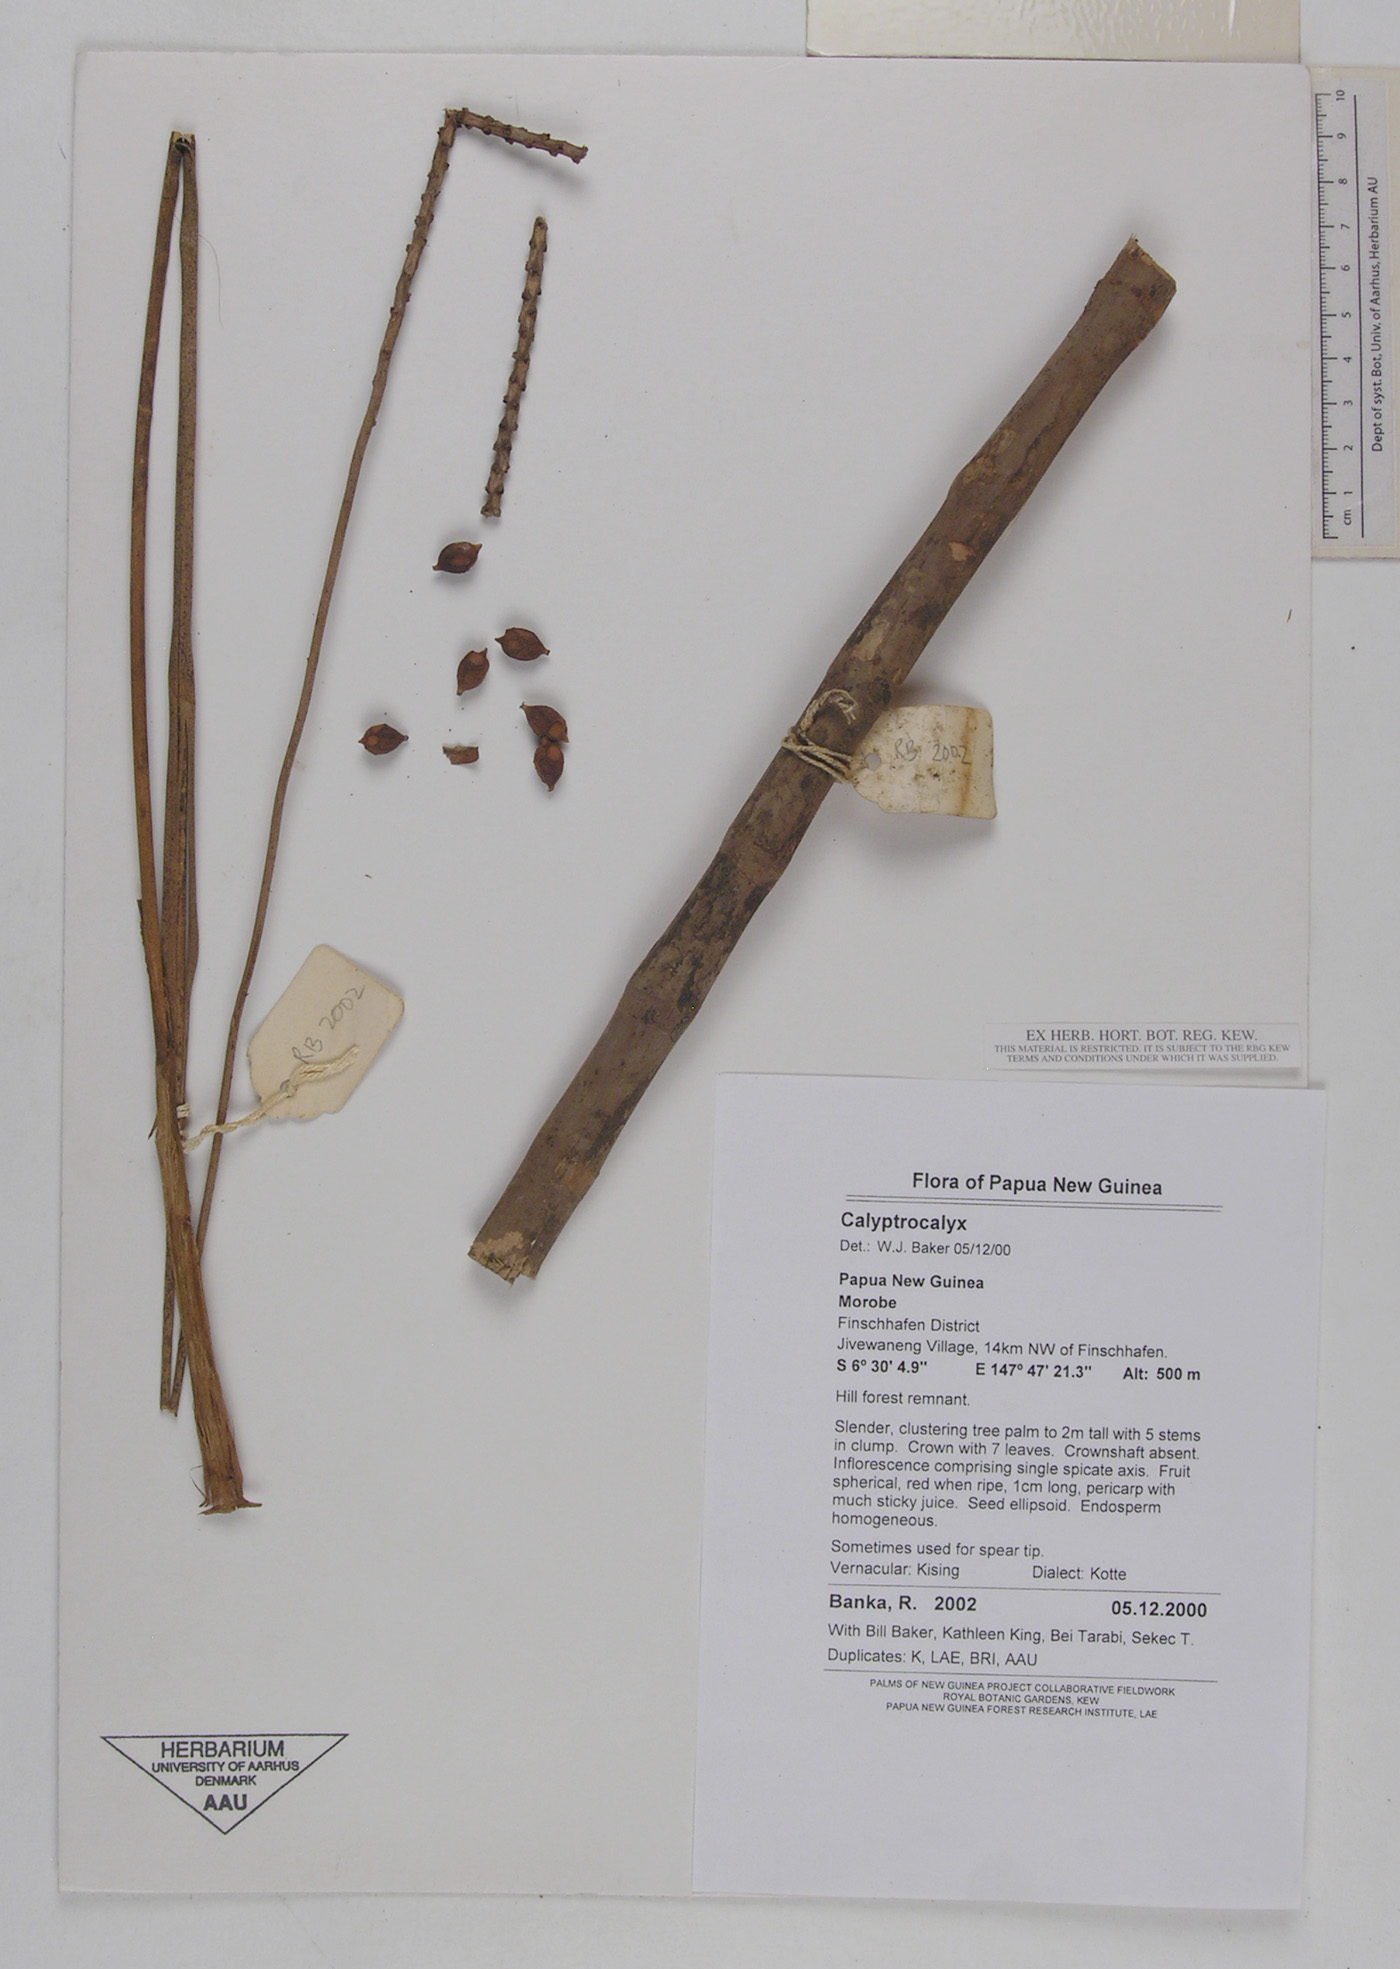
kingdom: Plantae
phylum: Tracheophyta
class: Liliopsida
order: Arecales
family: Arecaceae
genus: Calyptrocalyx
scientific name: Calyptrocalyx
